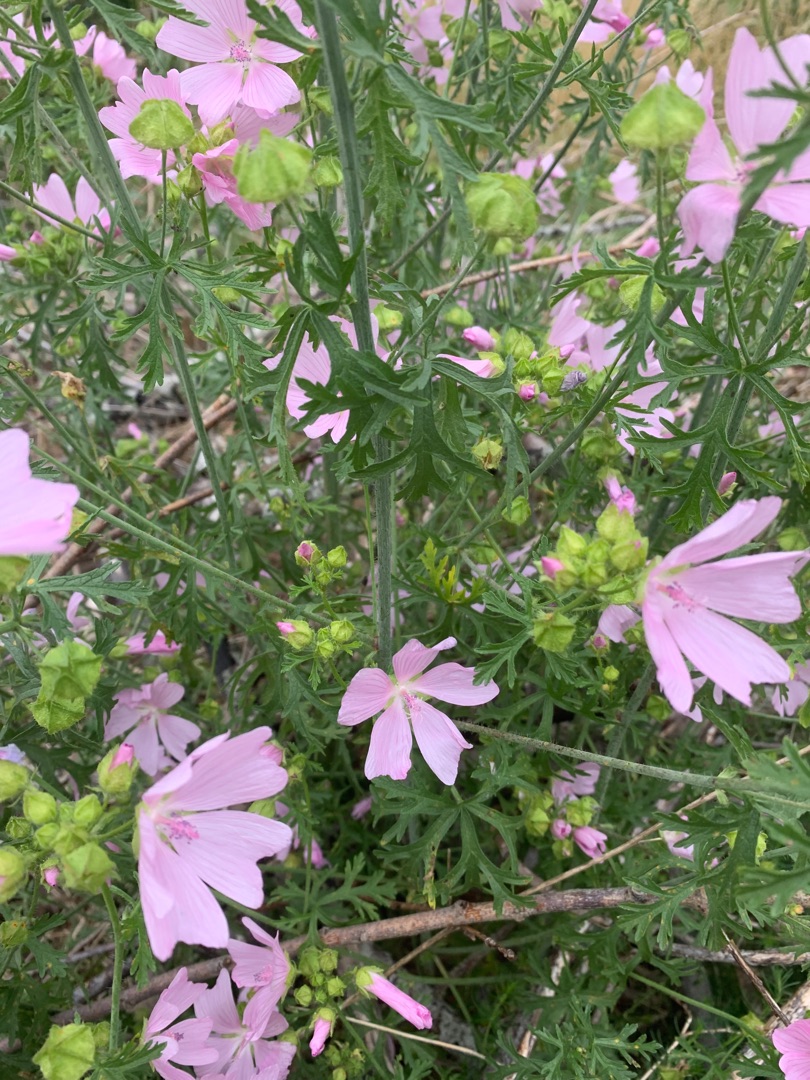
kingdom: Plantae
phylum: Tracheophyta
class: Magnoliopsida
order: Malvales
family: Malvaceae
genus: Malva
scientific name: Malva moschata
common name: Moskus-katost
